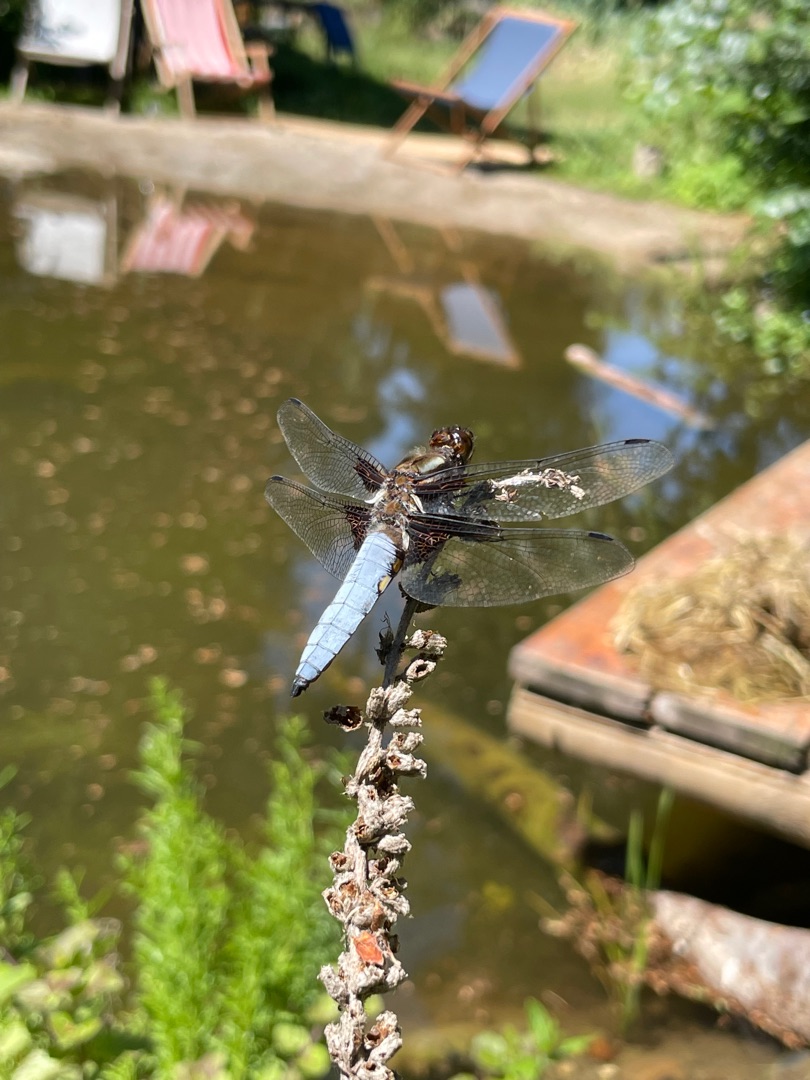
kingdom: Animalia
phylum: Arthropoda
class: Insecta
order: Odonata
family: Libellulidae
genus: Libellula
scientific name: Libellula depressa
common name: Blå libel
